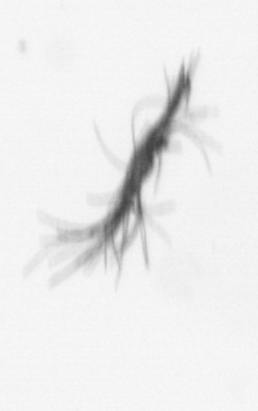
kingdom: Bacteria
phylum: Cyanobacteria
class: Cyanobacteriia
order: Cyanobacteriales
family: Microcoleaceae
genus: Trichodesmium
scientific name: Trichodesmium
